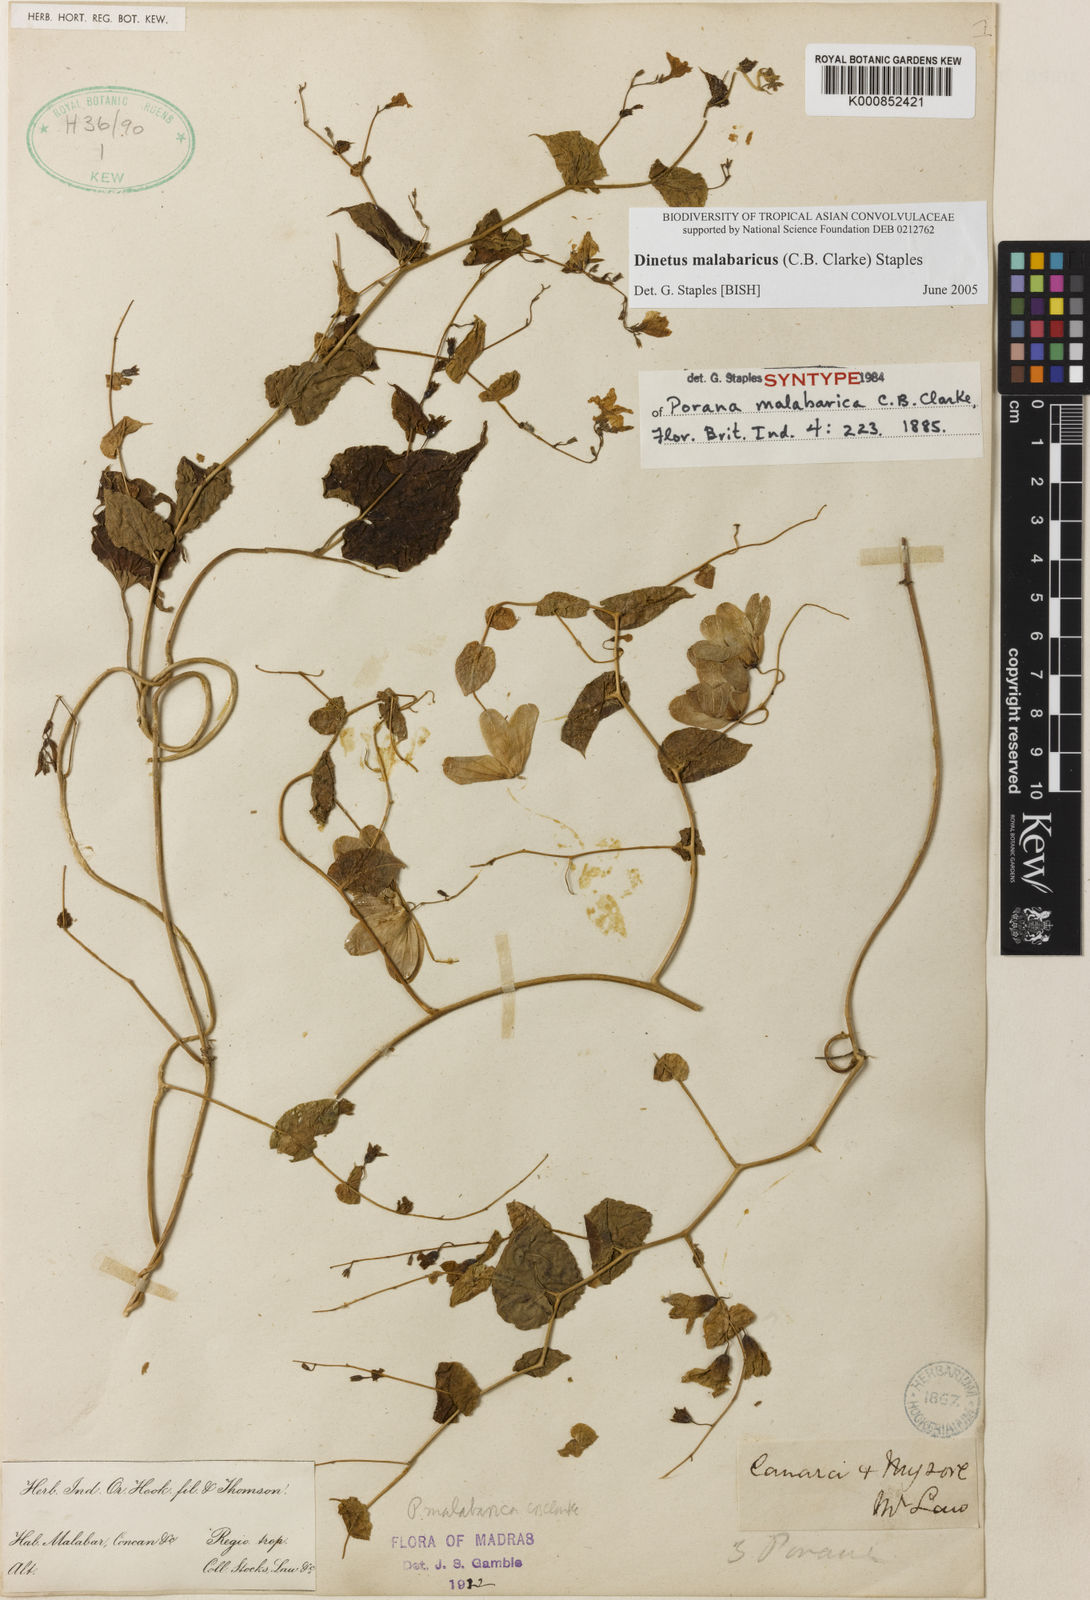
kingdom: Plantae
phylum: Tracheophyta
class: Magnoliopsida
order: Solanales
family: Convolvulaceae
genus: Dinetus
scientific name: Dinetus malabaricus
